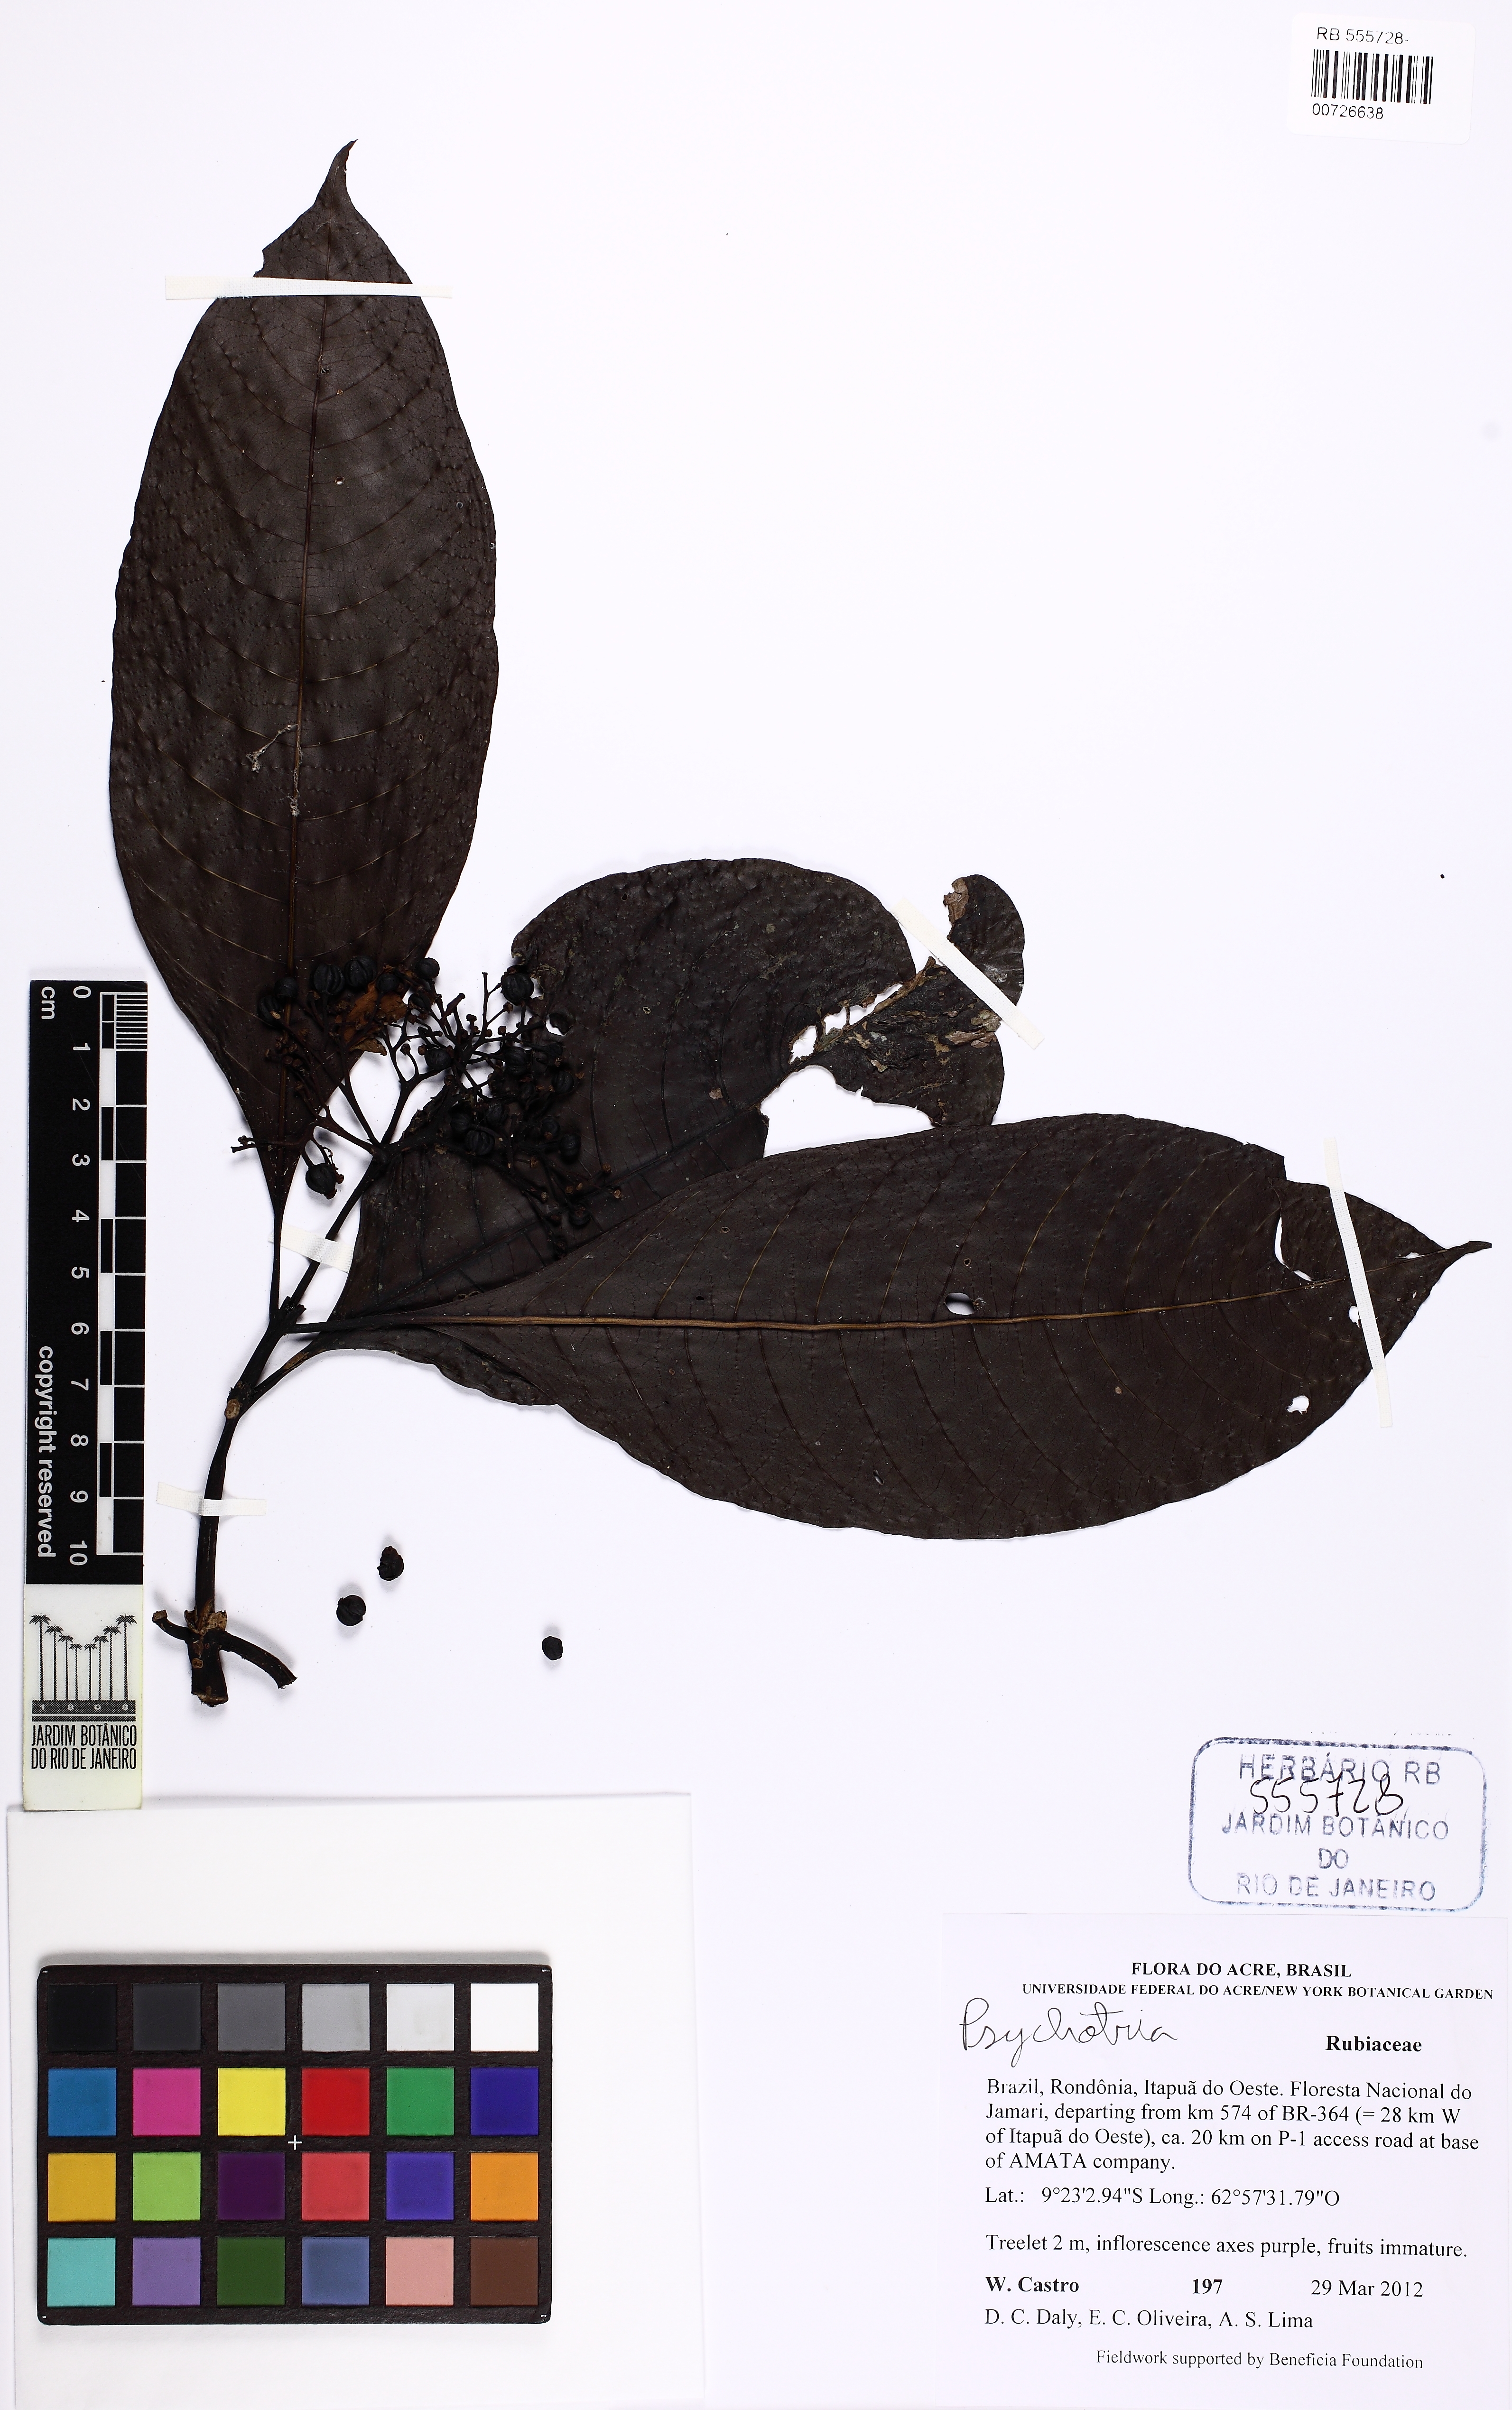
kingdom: Plantae
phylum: Tracheophyta
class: Magnoliopsida
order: Gentianales
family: Rubiaceae
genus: Psychotria
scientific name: Psychotria
